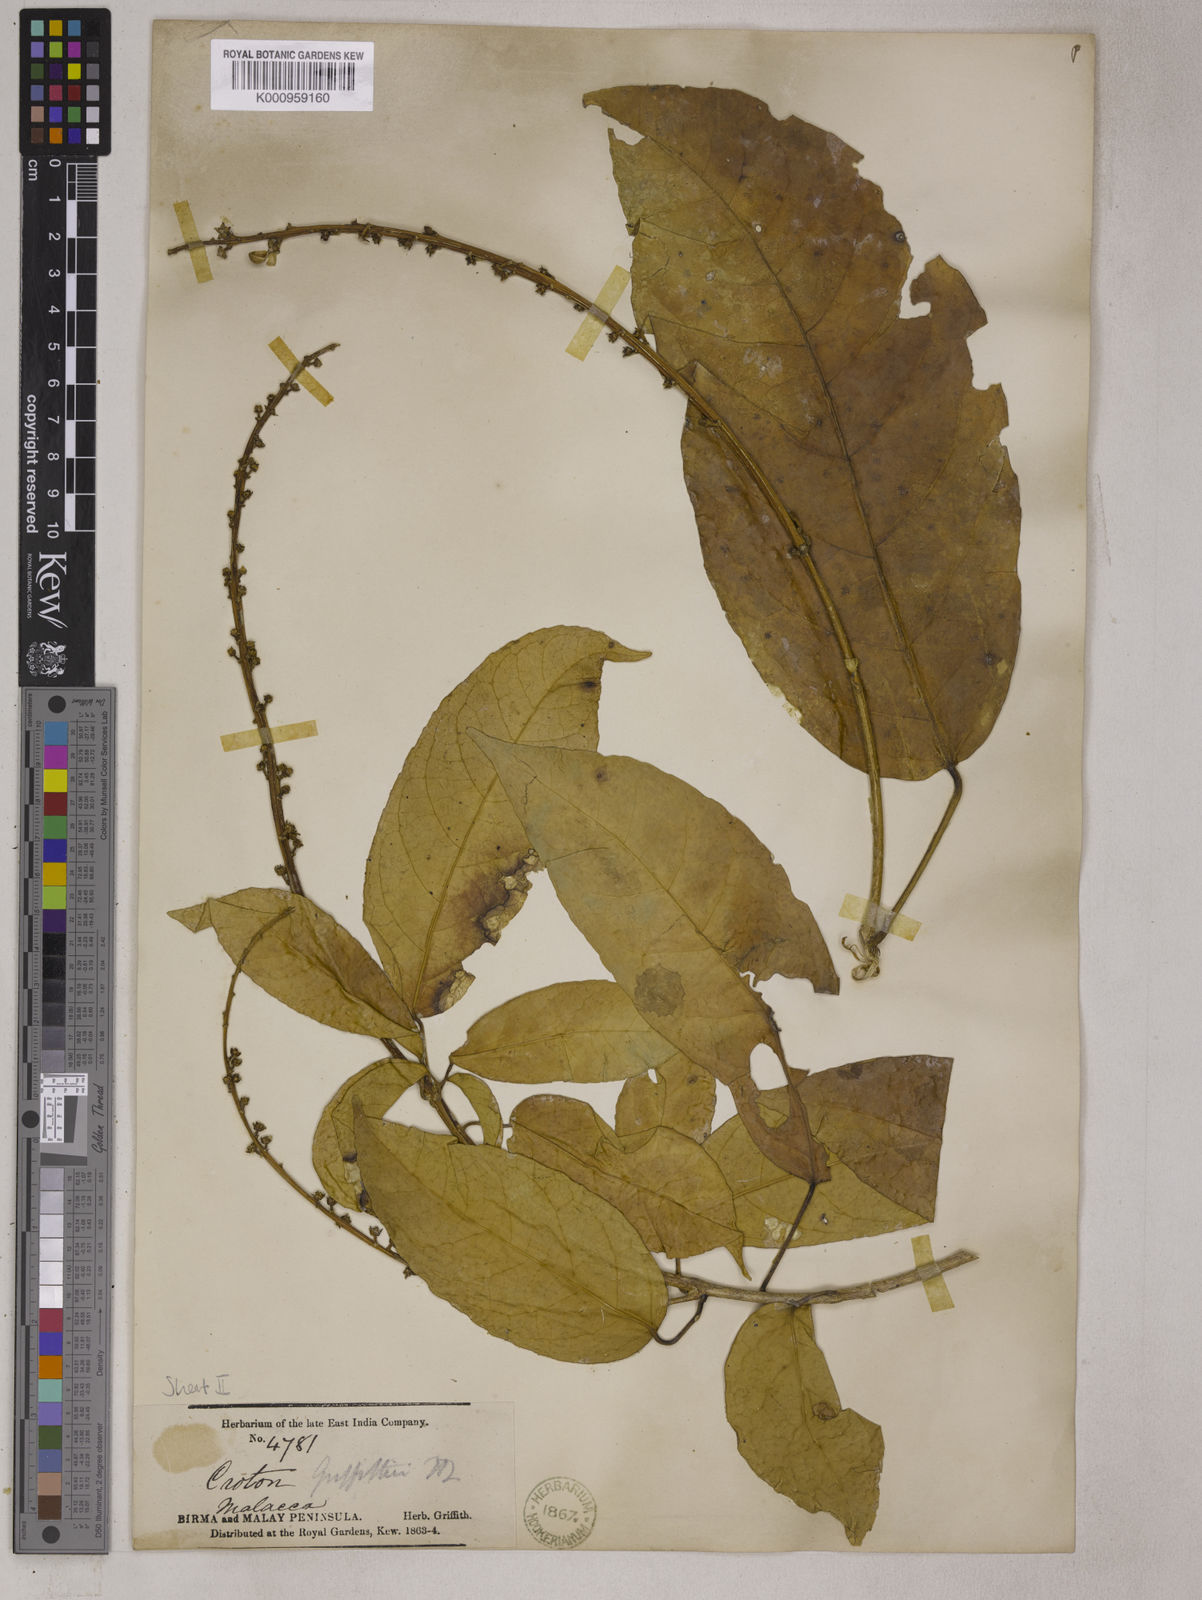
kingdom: Plantae
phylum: Tracheophyta
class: Magnoliopsida
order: Malpighiales
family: Euphorbiaceae
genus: Croton
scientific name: Croton griffithii
